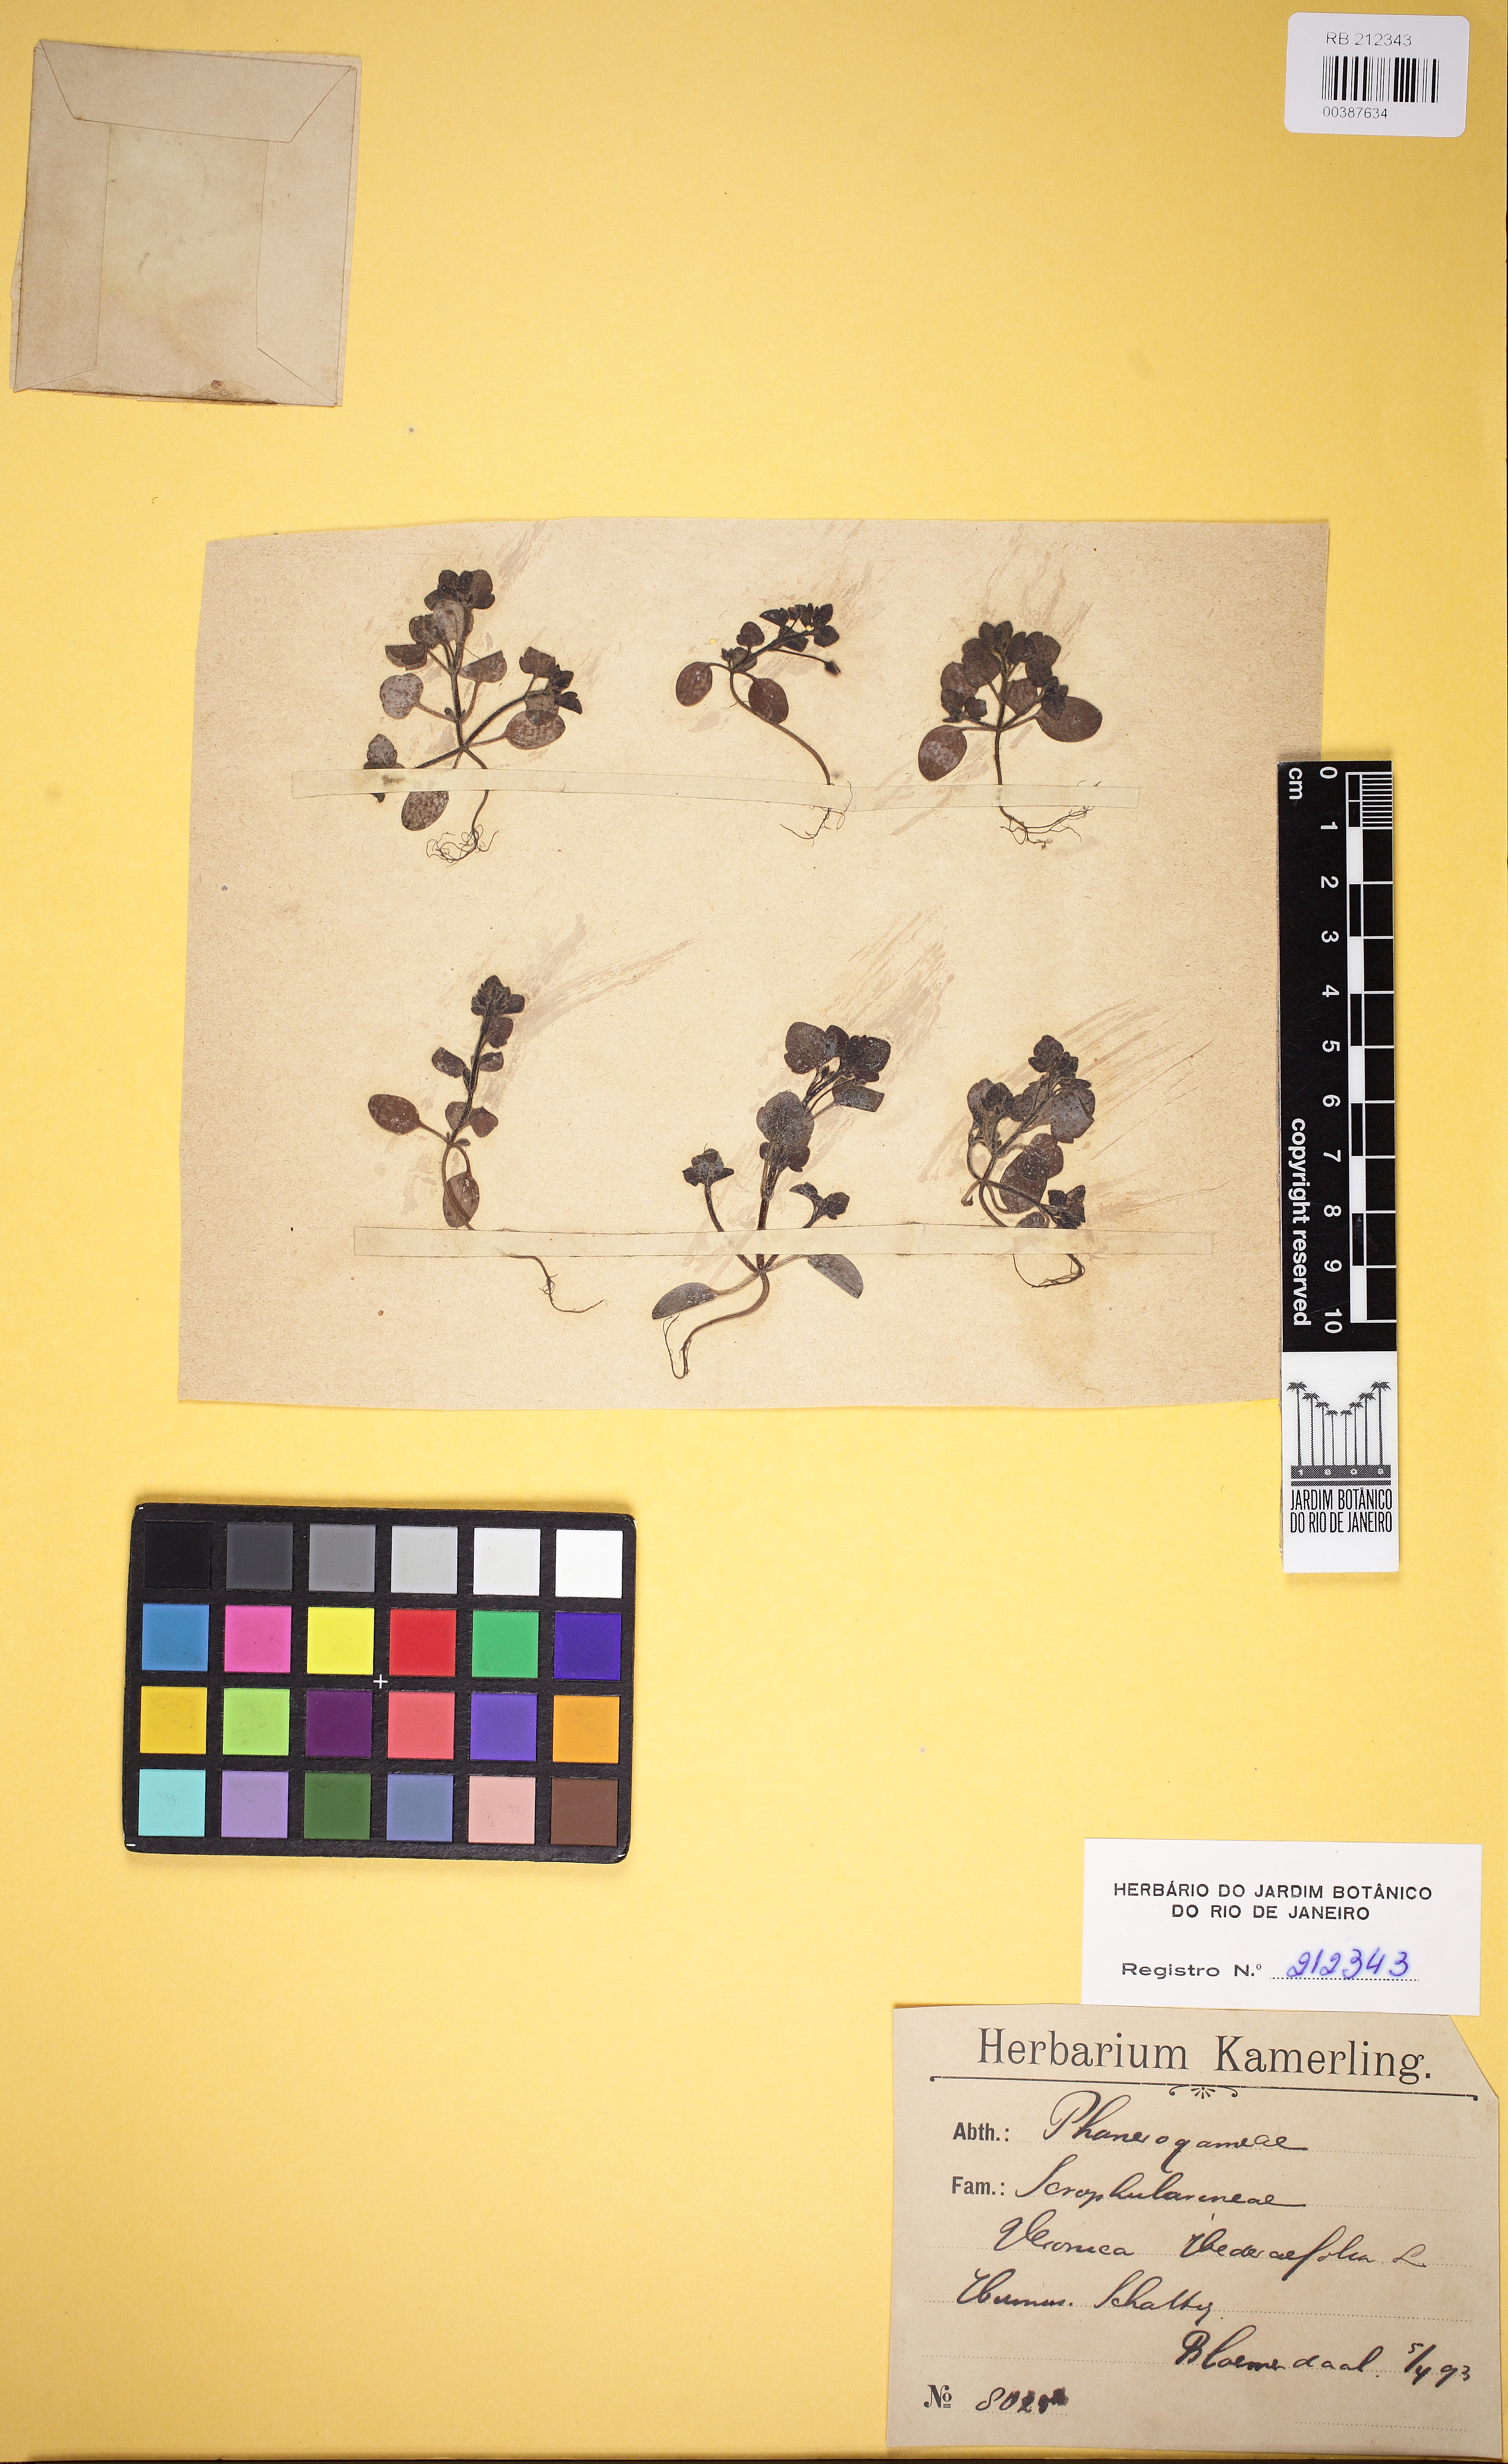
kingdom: Plantae
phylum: Tracheophyta
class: Magnoliopsida
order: Lamiales
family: Plantaginaceae
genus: Veronica
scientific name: Veronica hederifolia
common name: Ivy-leaved speedwell
